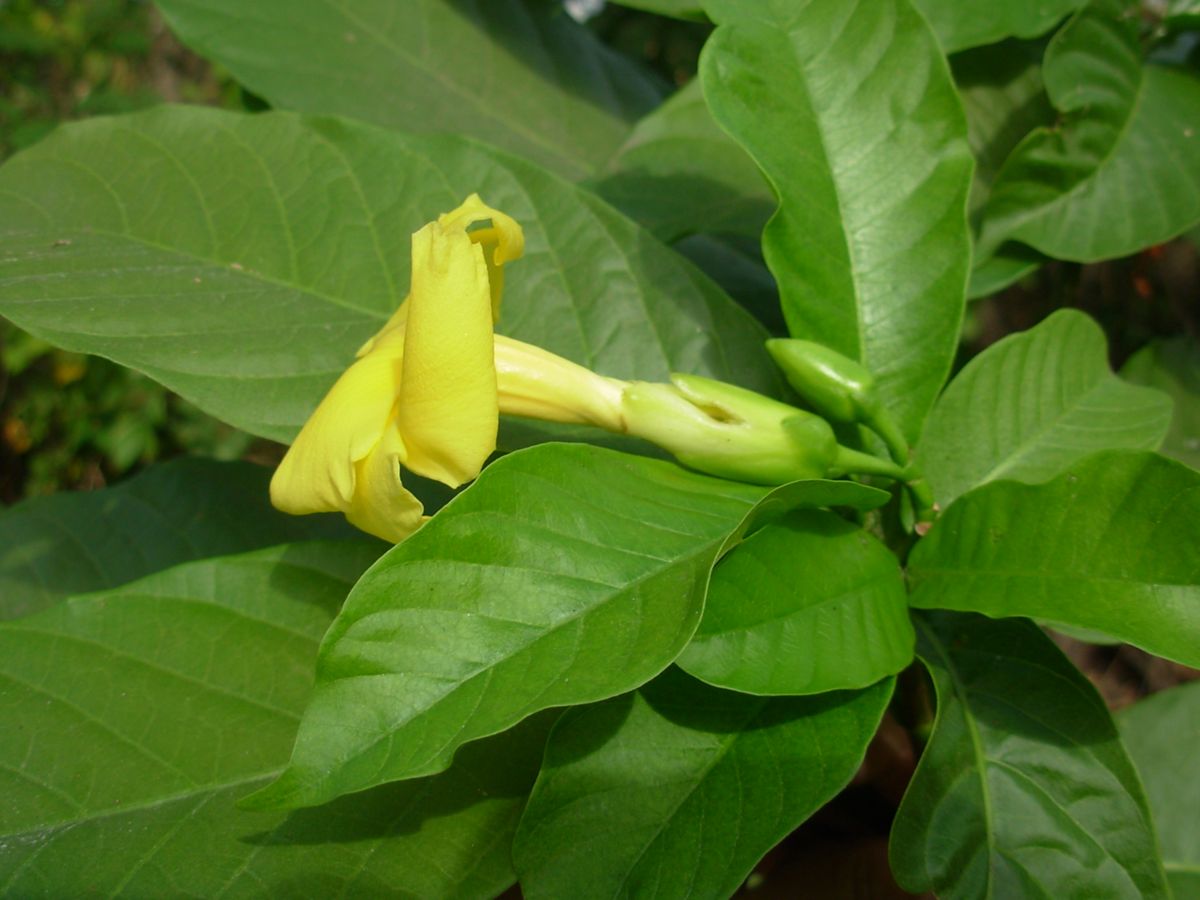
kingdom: Plantae
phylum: Tracheophyta
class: Magnoliopsida
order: Gentianales
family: Apocynaceae
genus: Tabernaemontana
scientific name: Tabernaemontana donnell-smithii
